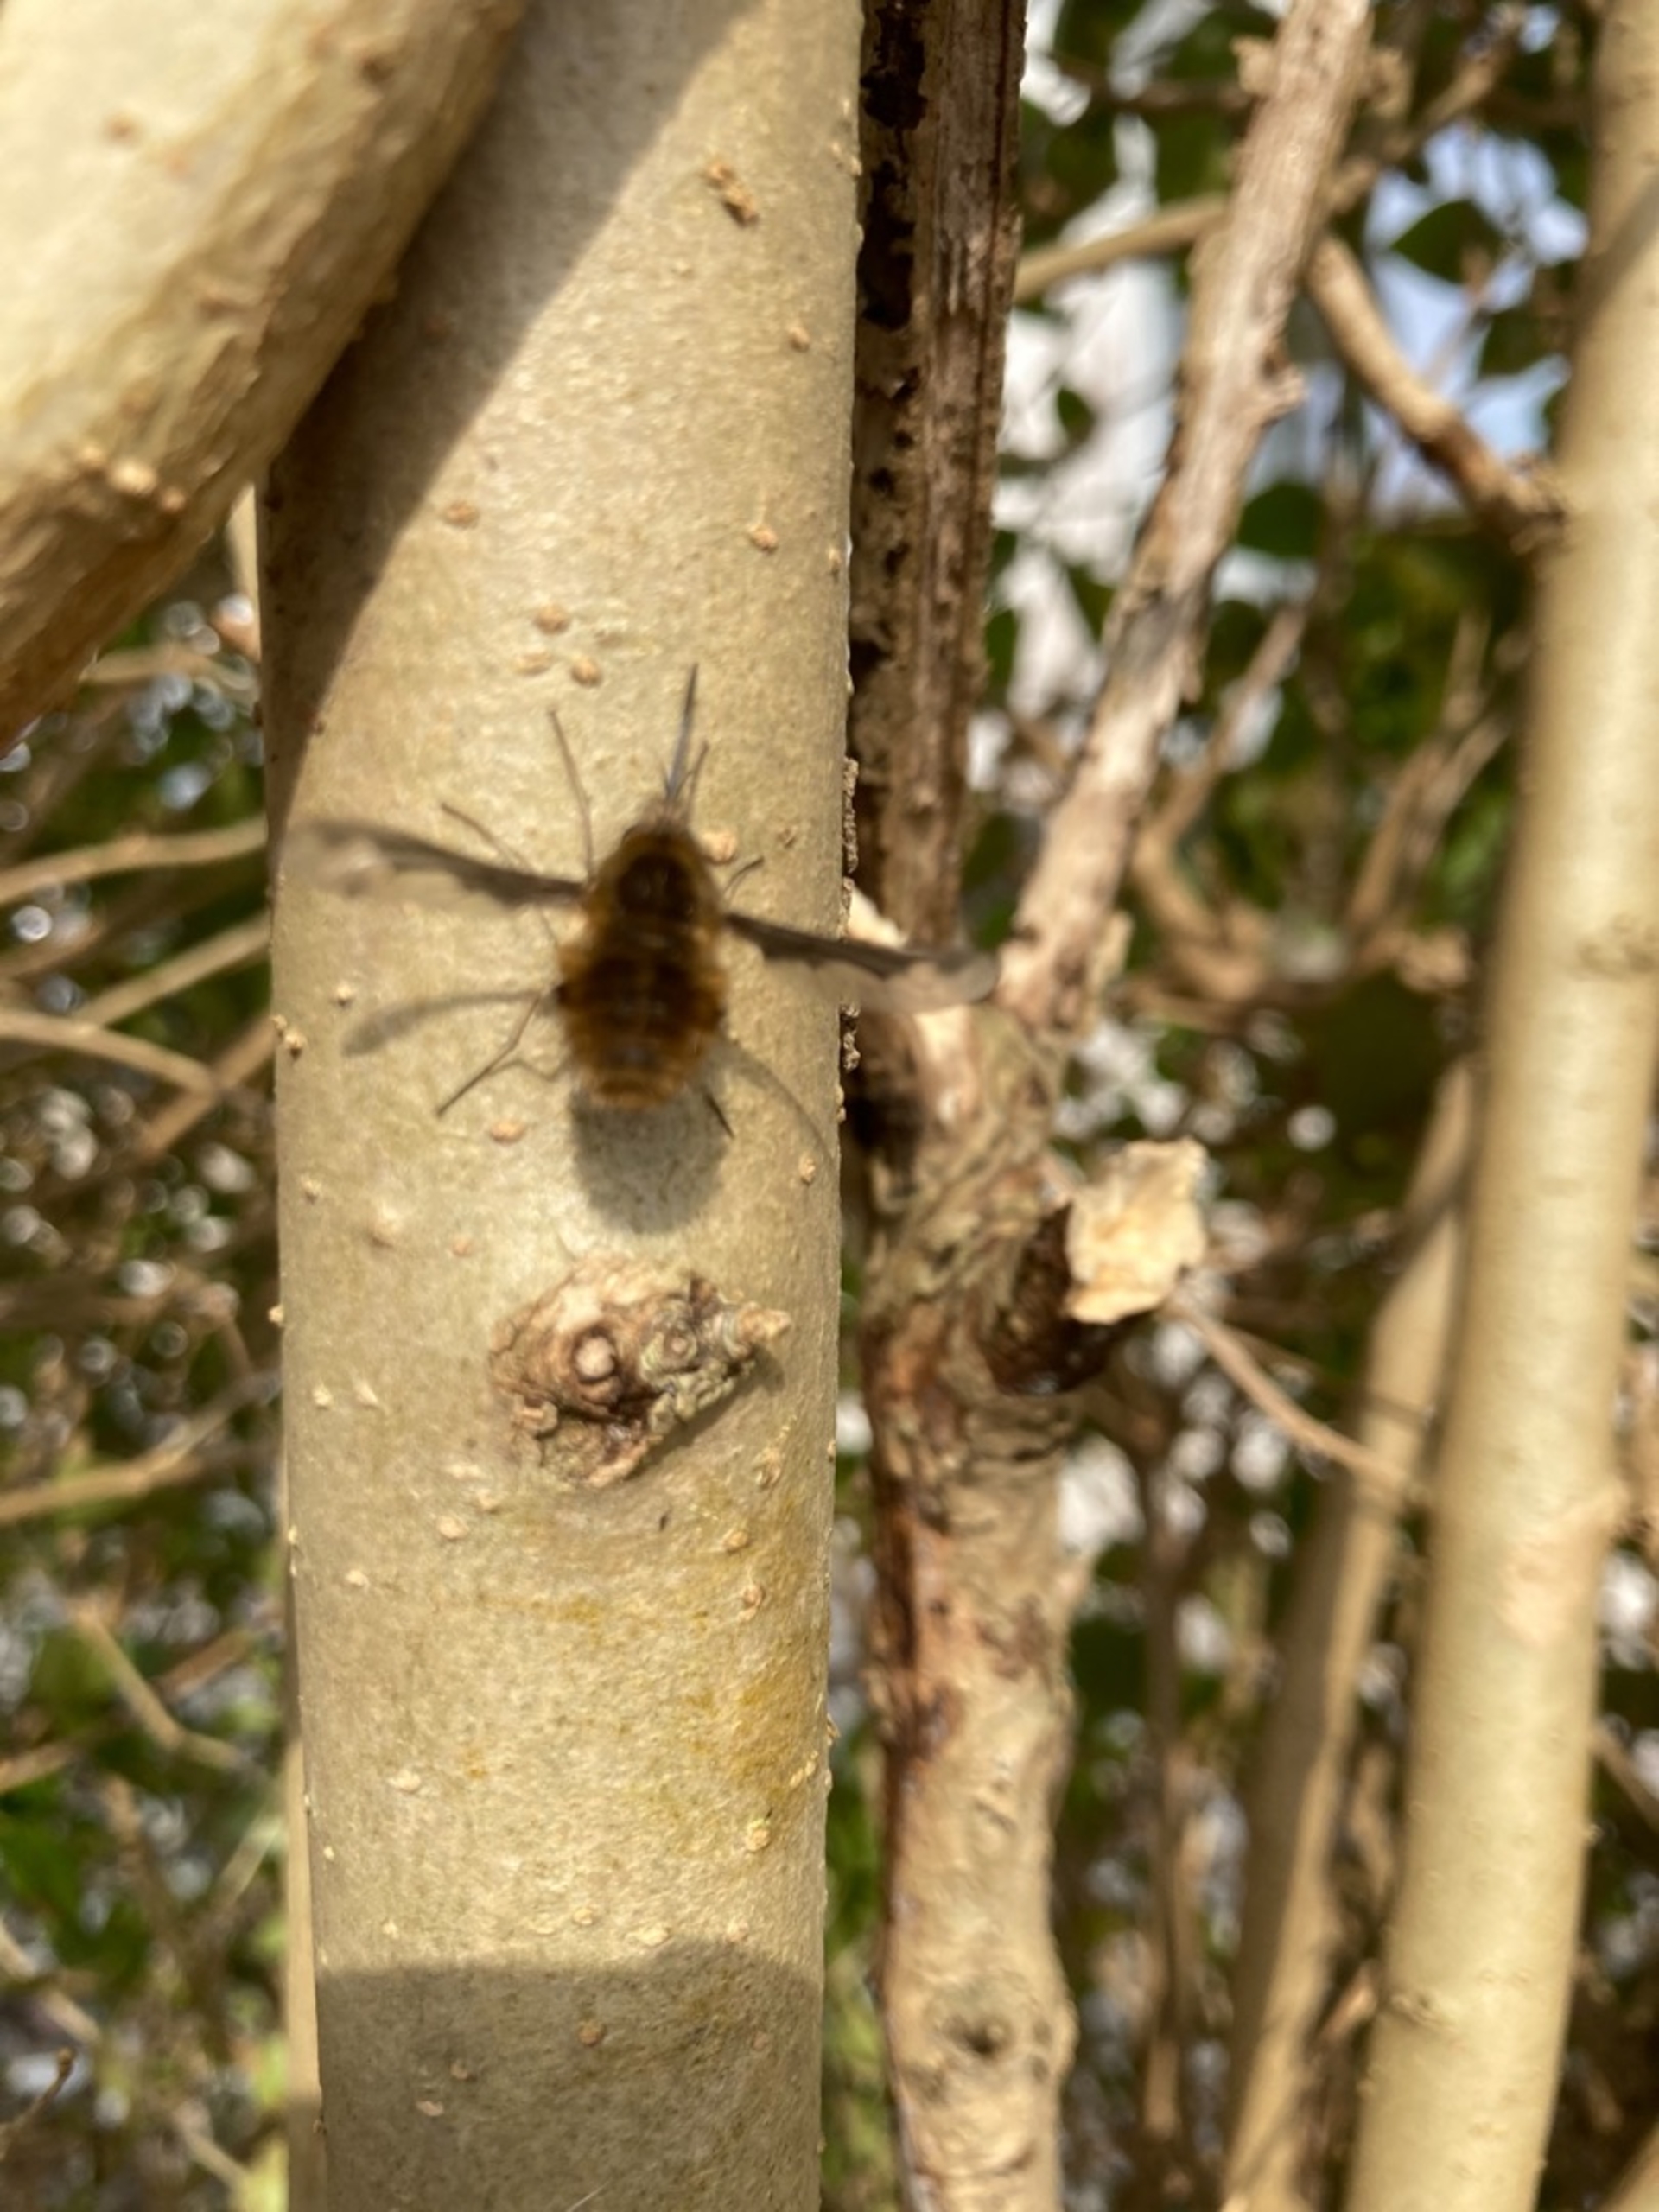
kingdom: Animalia
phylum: Arthropoda
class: Insecta
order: Diptera
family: Bombyliidae
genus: Bombylius
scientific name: Bombylius major
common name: Stor humleflue
